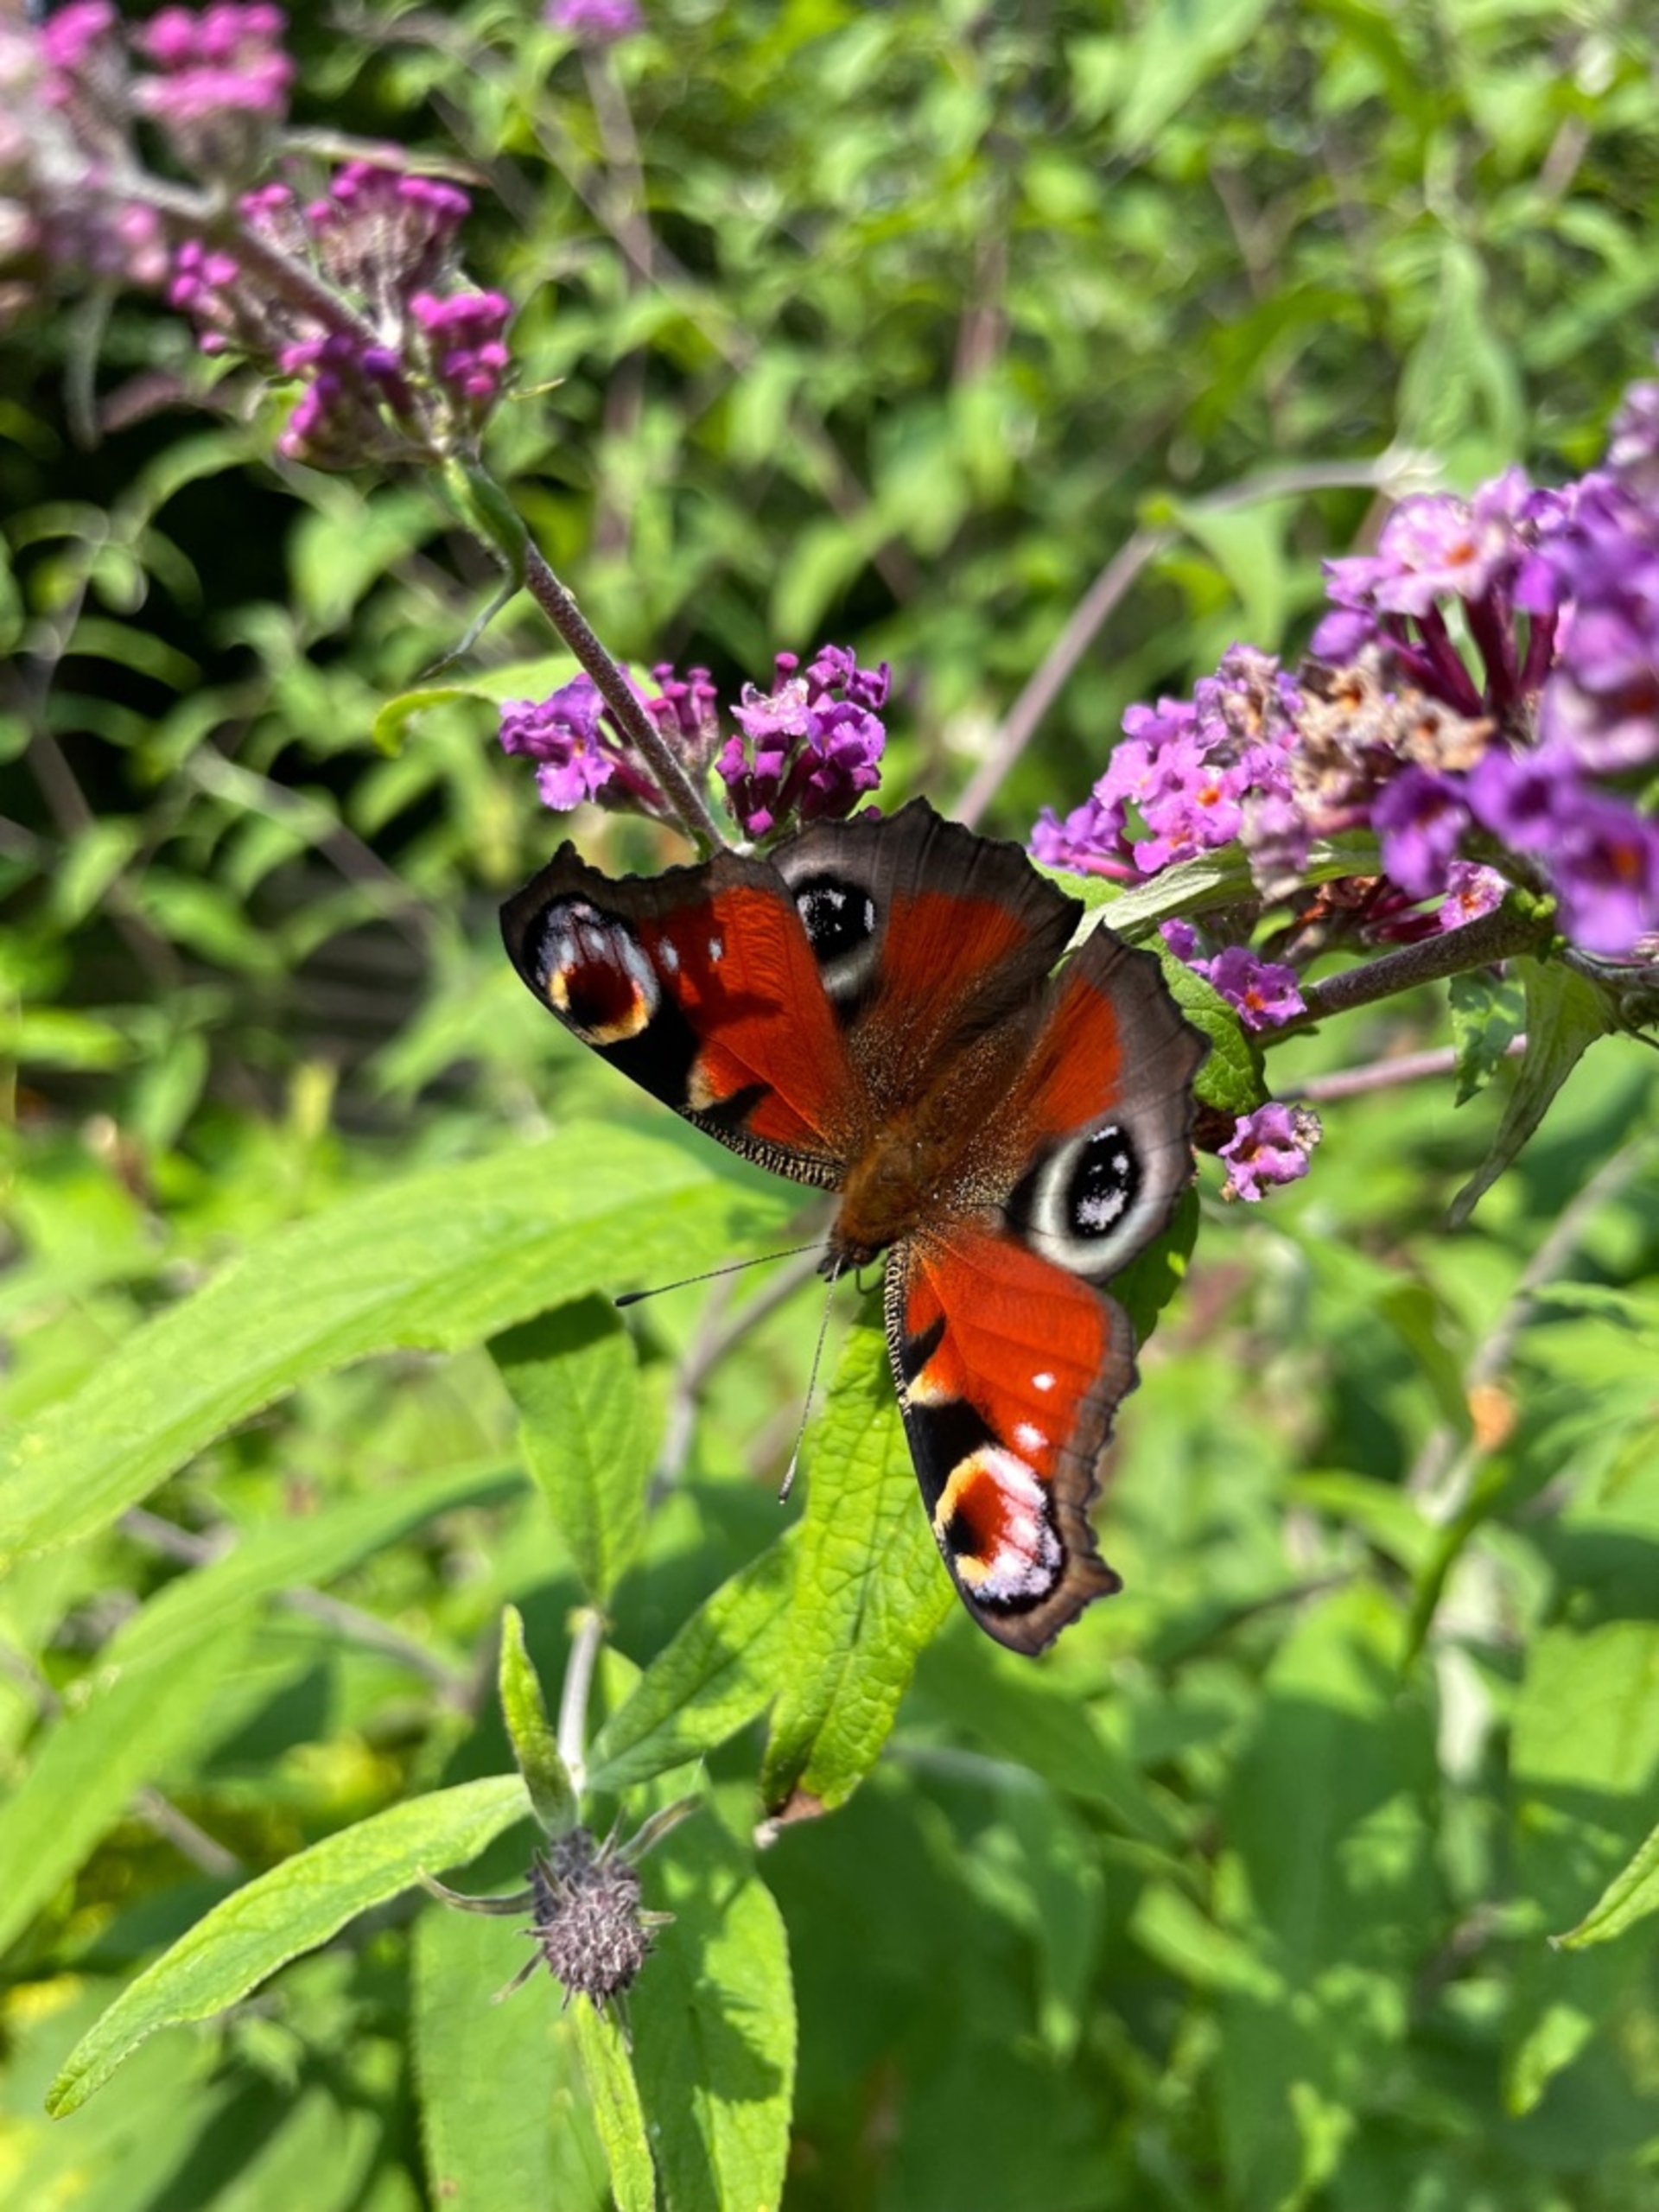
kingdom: Animalia
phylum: Arthropoda
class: Insecta
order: Lepidoptera
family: Nymphalidae
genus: Aglais
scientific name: Aglais io
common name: Dagpåfugleøje
